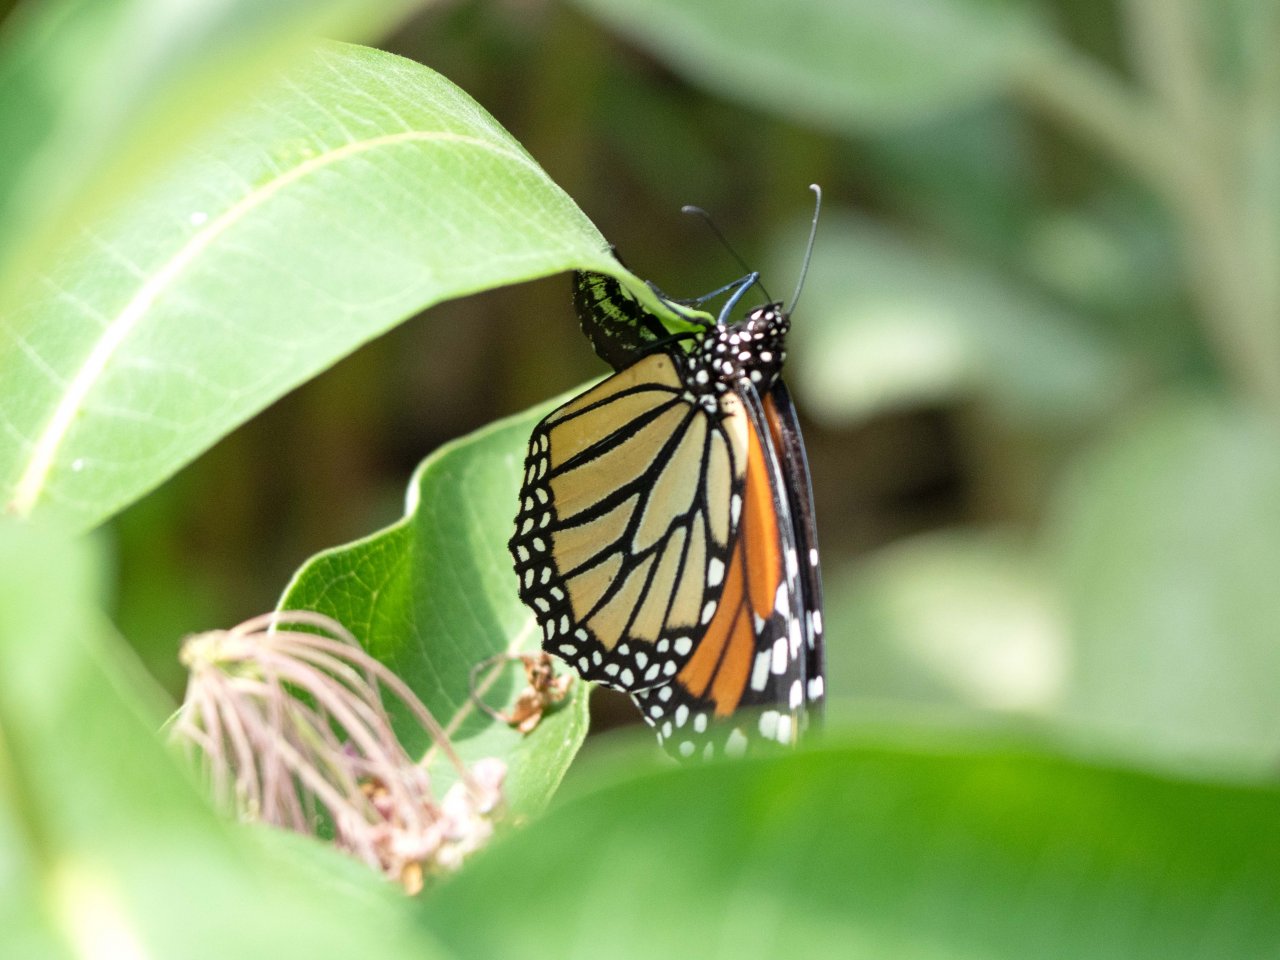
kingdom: Animalia
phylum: Arthropoda
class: Insecta
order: Lepidoptera
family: Nymphalidae
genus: Danaus
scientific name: Danaus plexippus
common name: Monarch
